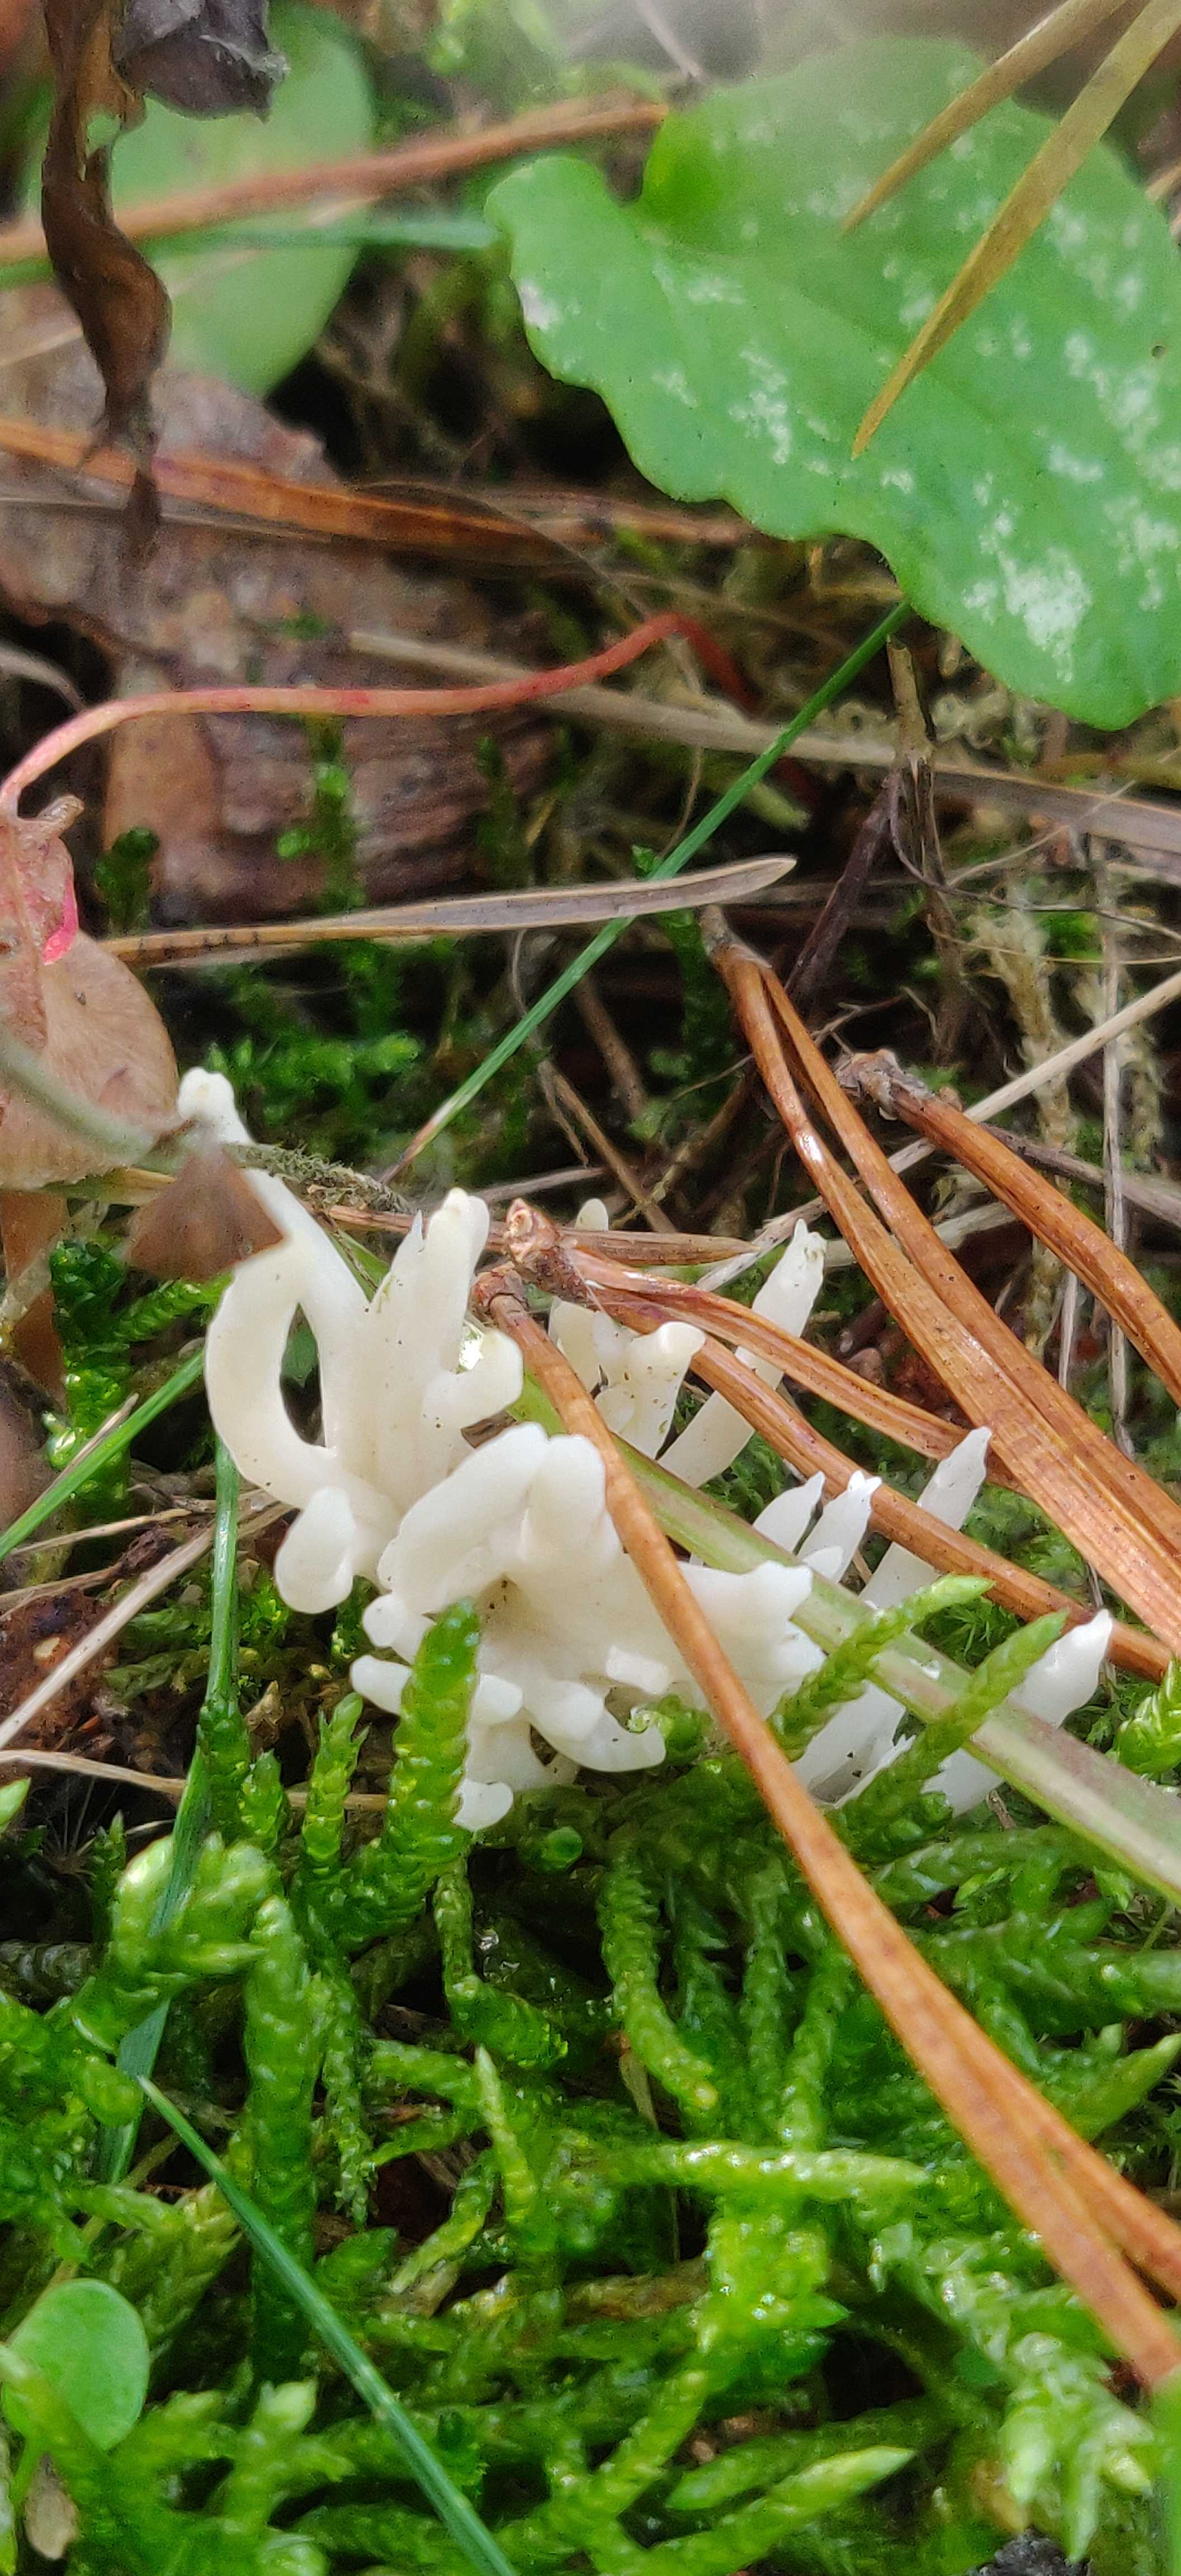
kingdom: Fungi
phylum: Basidiomycota
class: Agaricomycetes
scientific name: Agaricomycetes
